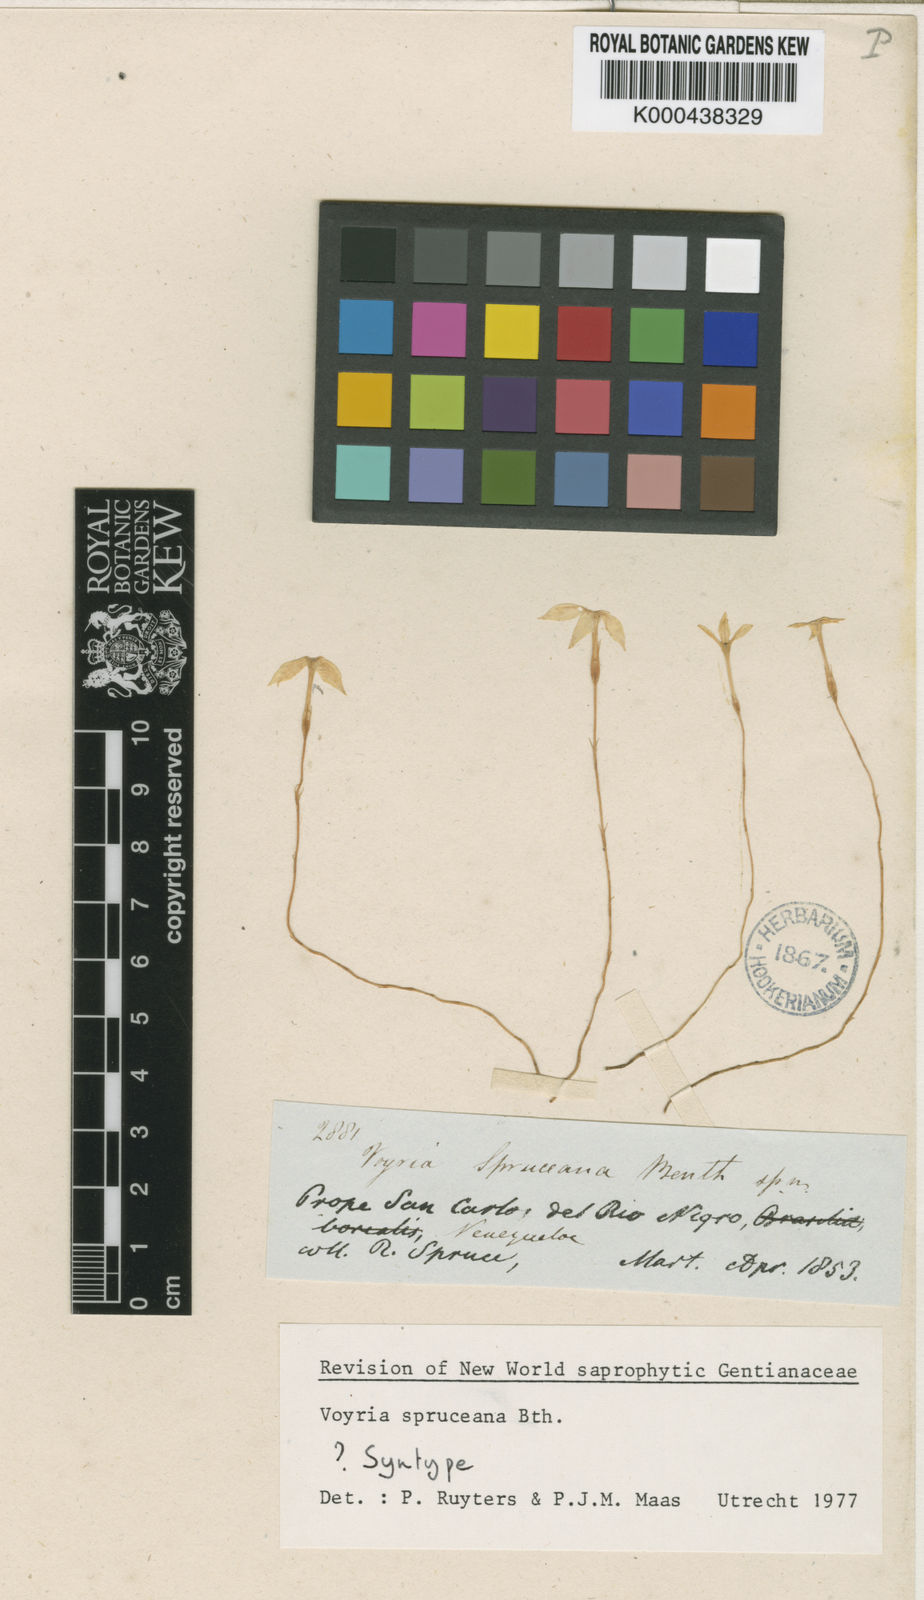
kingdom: Plantae
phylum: Tracheophyta
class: Magnoliopsida
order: Gentianales
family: Gentianaceae
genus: Voyria
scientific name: Voyria spruceana
